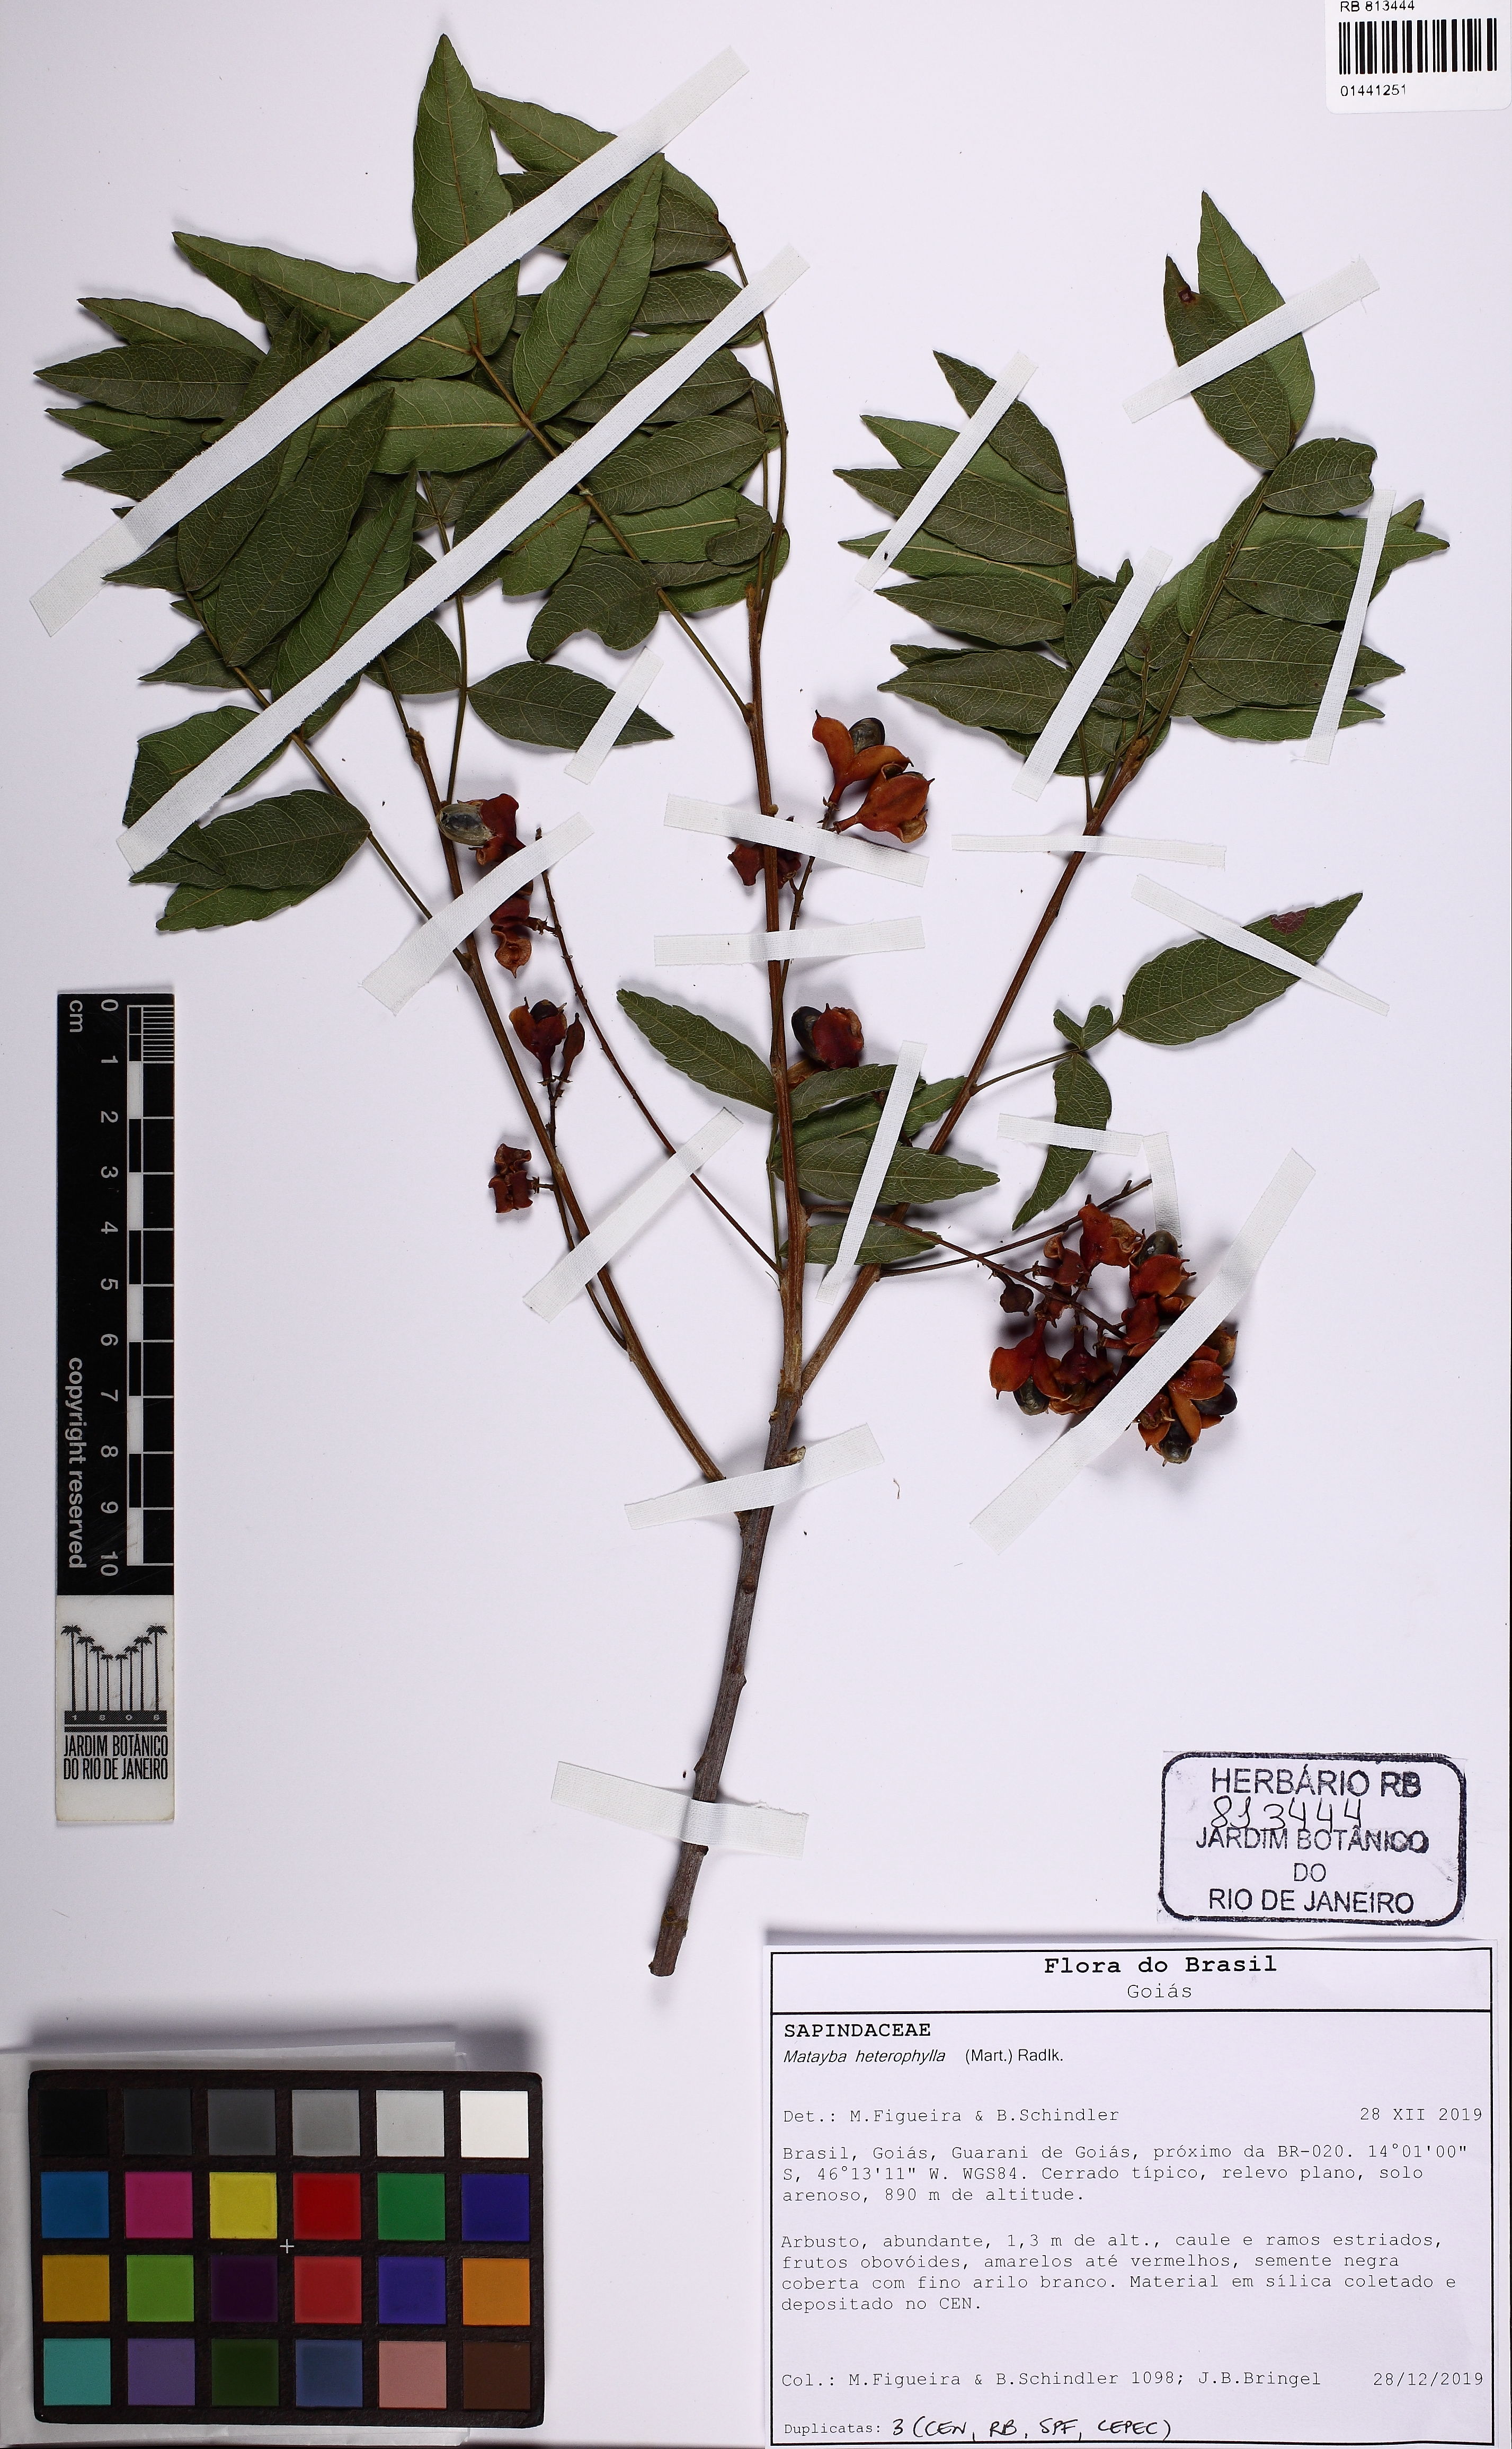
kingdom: Plantae
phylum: Tracheophyta
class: Magnoliopsida
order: Sapindales
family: Sapindaceae
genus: Matayba
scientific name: Matayba heterophylla
